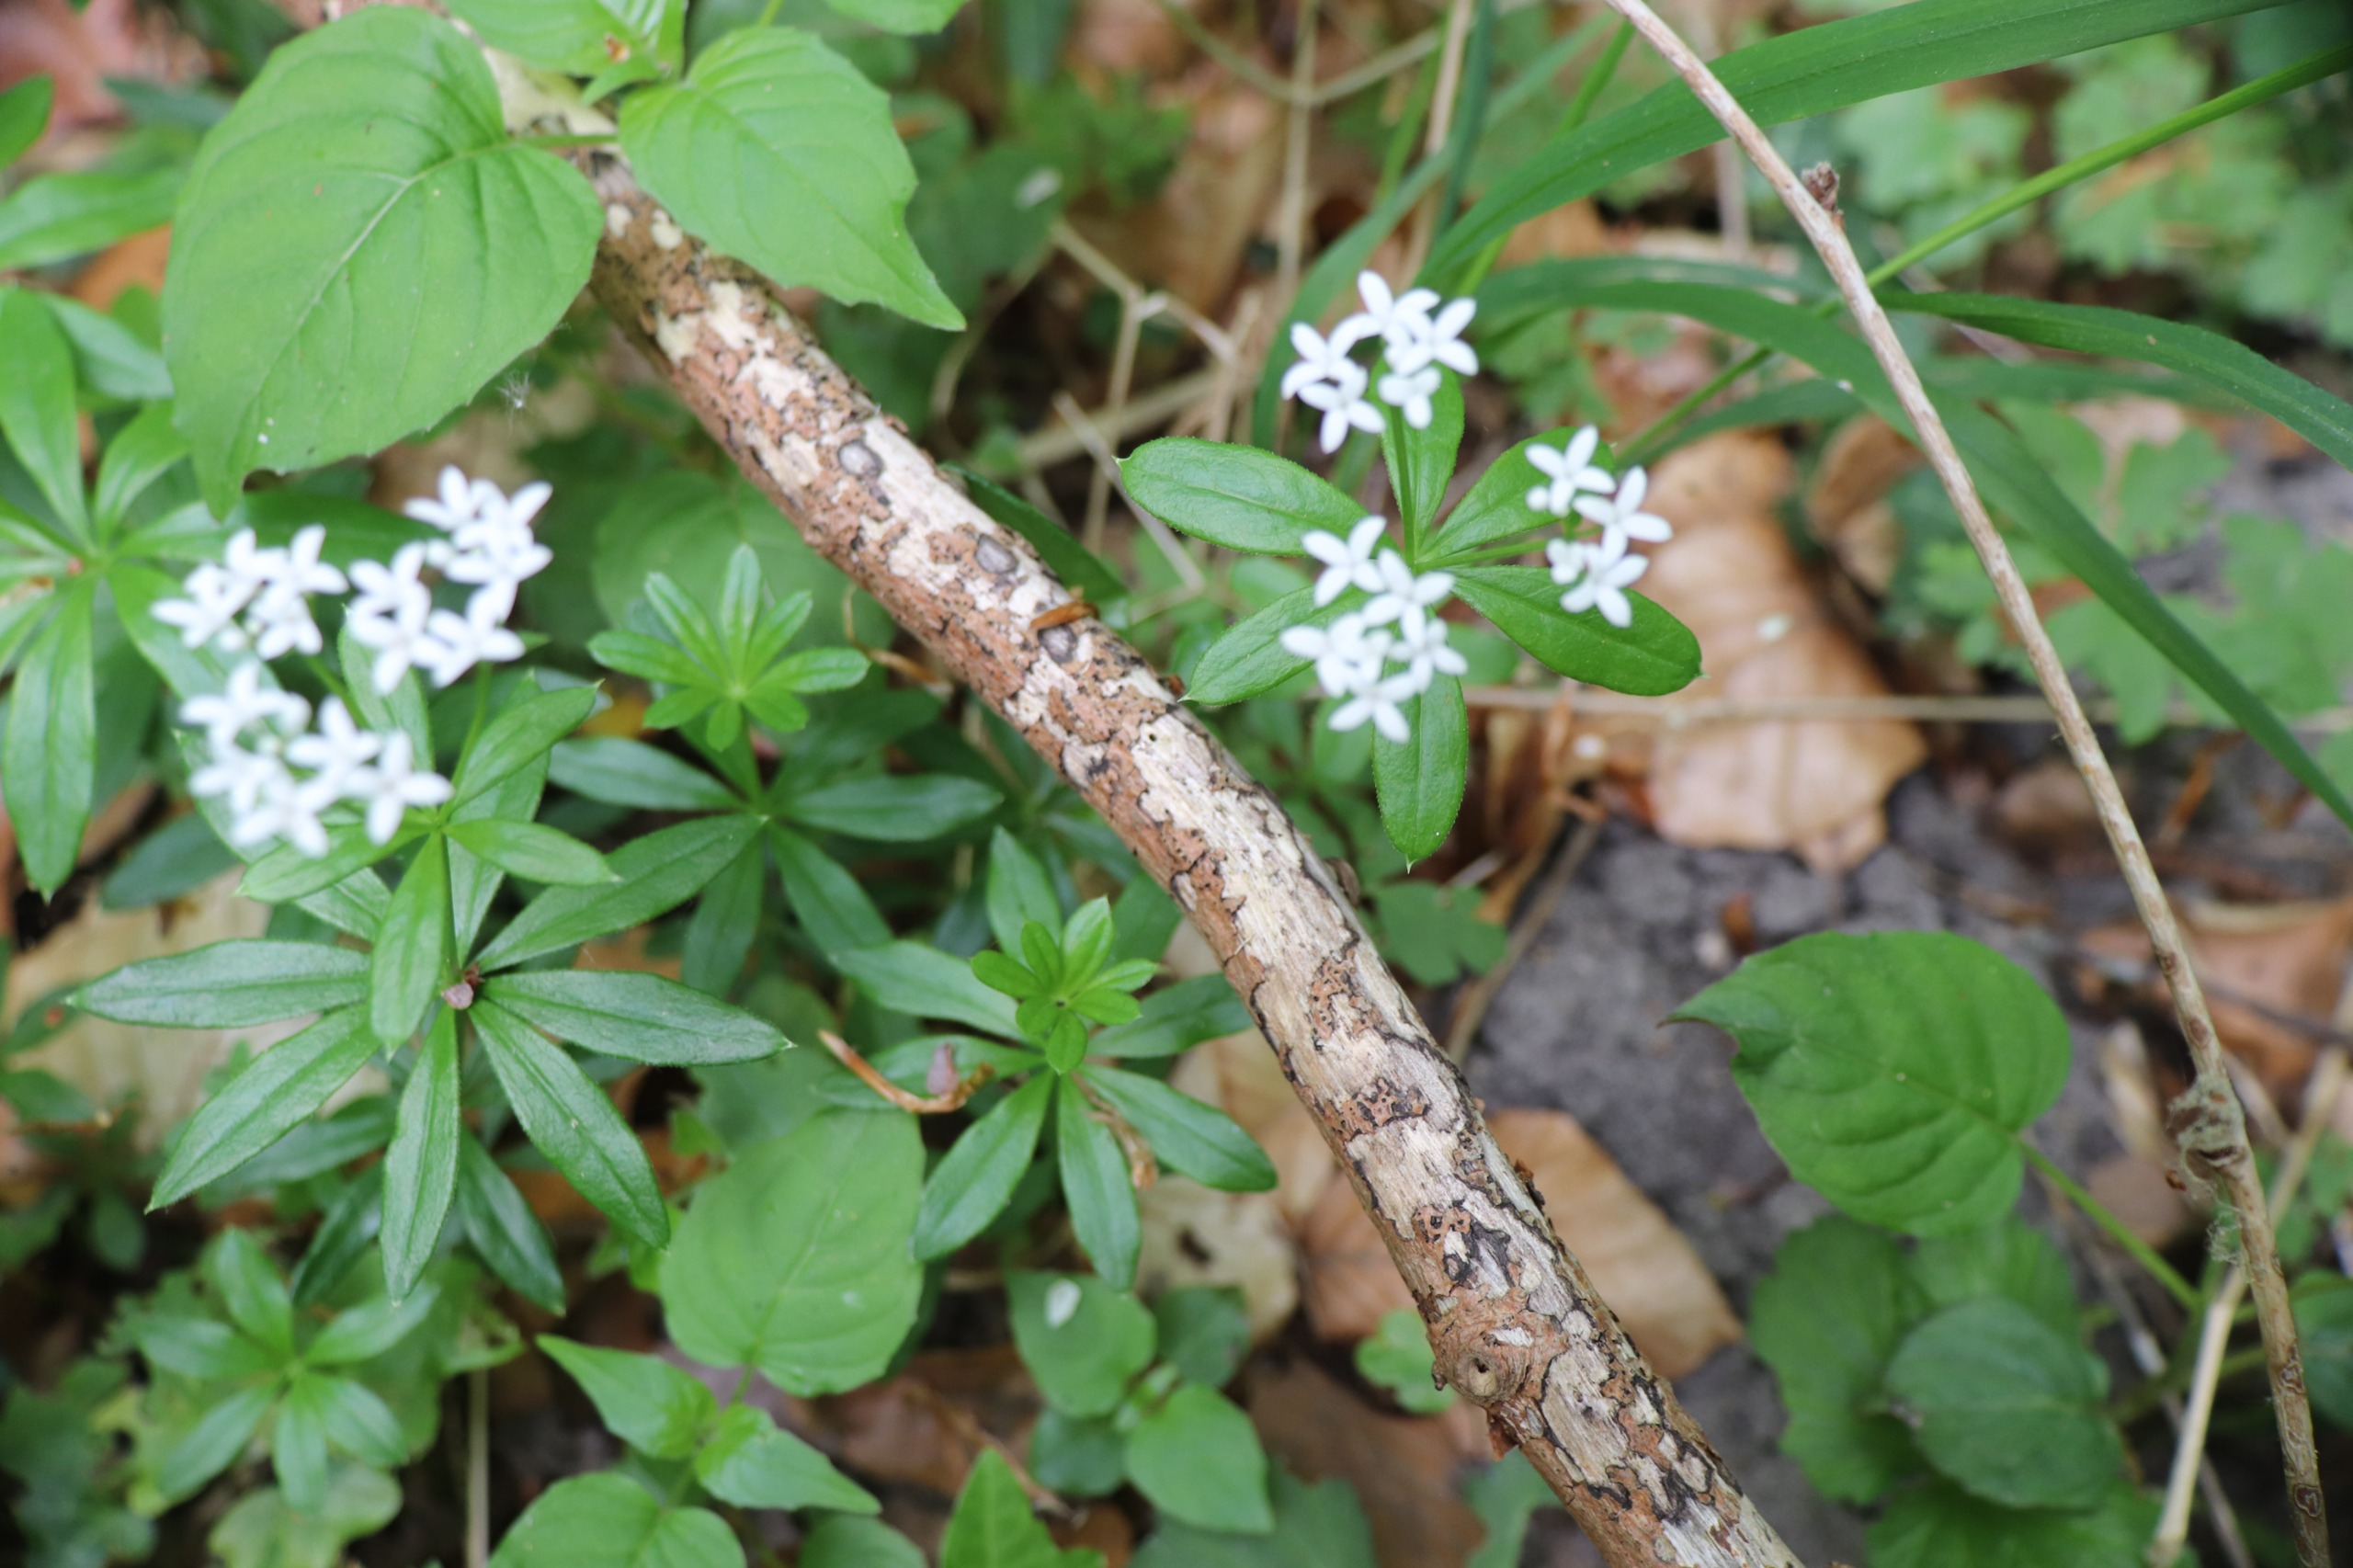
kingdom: Plantae
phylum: Tracheophyta
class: Magnoliopsida
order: Gentianales
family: Rubiaceae
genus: Galium
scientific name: Galium odoratum
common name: Skovmærke
